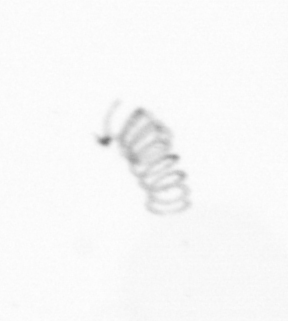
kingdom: Chromista
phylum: Ochrophyta
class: Bacillariophyceae
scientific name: Bacillariophyceae
